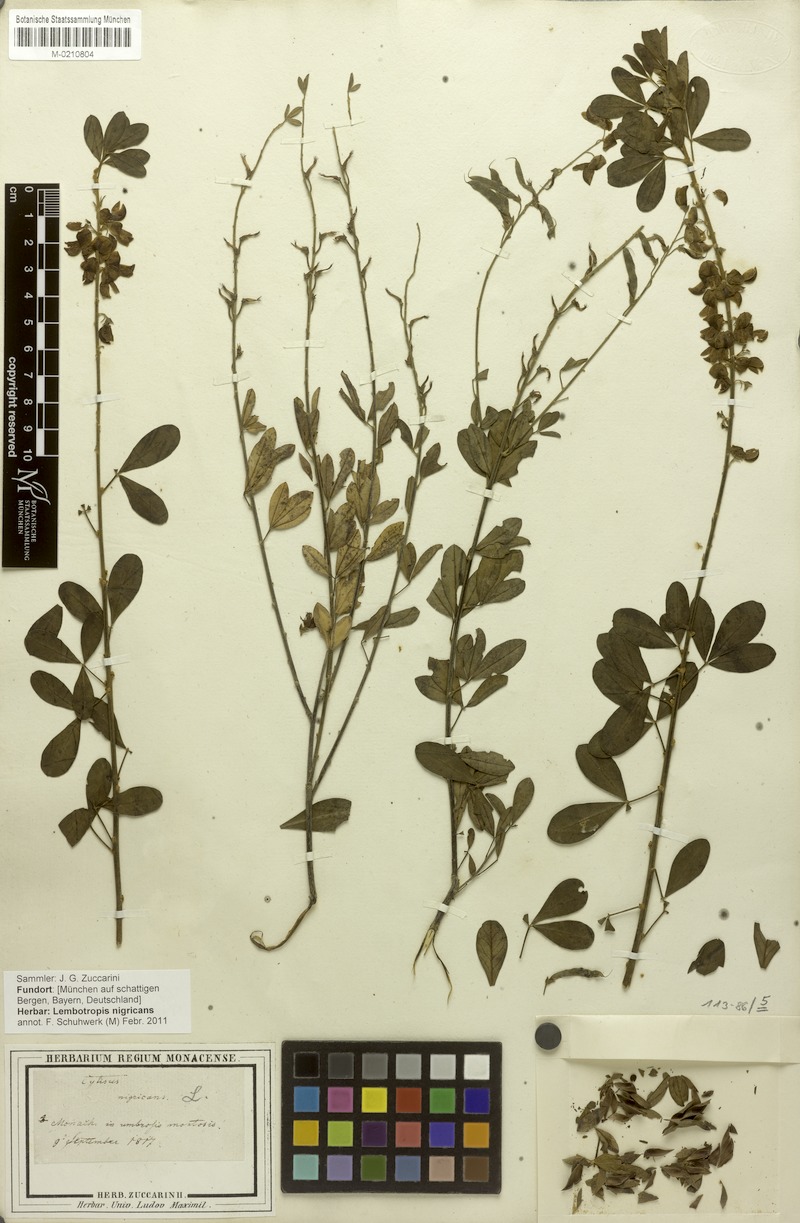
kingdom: Plantae
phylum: Tracheophyta
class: Magnoliopsida
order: Fabales
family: Fabaceae
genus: Cytisus
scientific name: Cytisus nigricans
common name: Black broom
